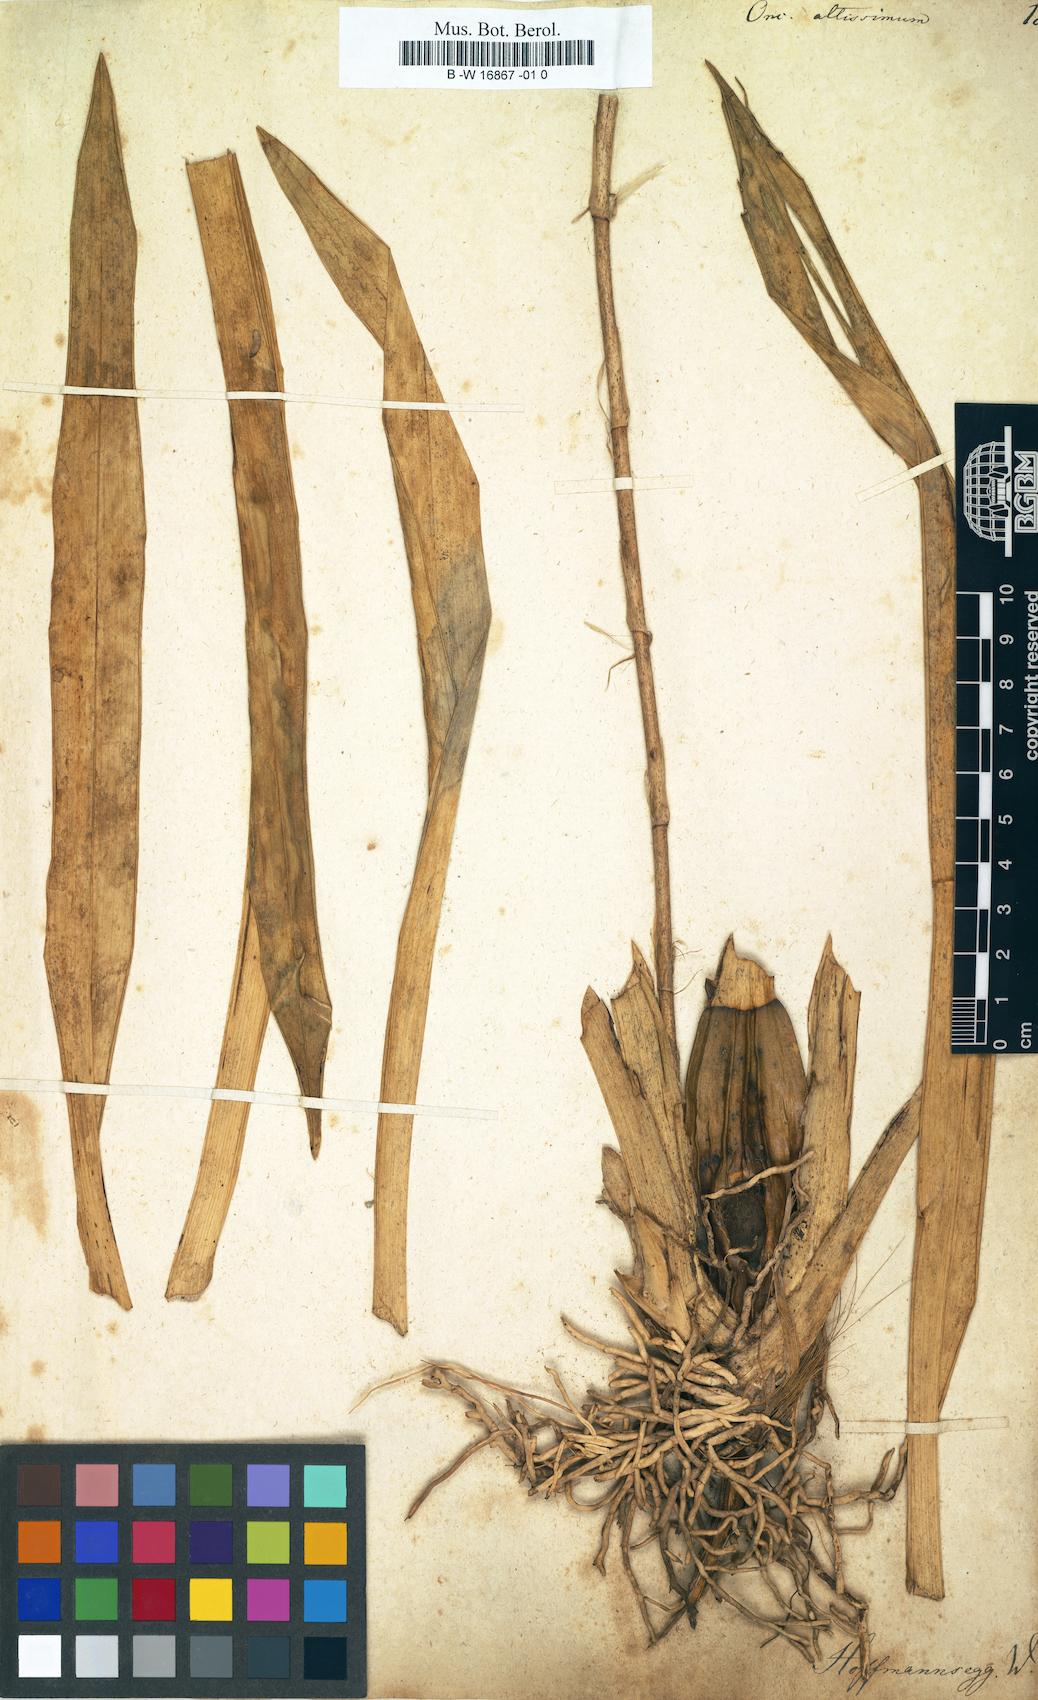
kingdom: Plantae
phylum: Tracheophyta
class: Liliopsida
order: Asparagales
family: Orchidaceae
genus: Oncidium
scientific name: Oncidium altissimum
